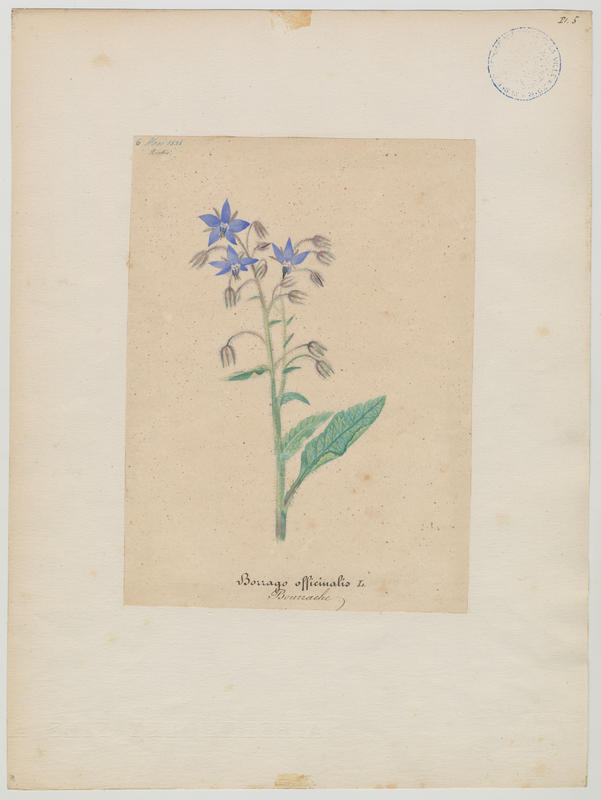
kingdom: Plantae
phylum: Tracheophyta
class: Magnoliopsida
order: Boraginales
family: Boraginaceae
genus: Borago
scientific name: Borago officinalis
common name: Borage
